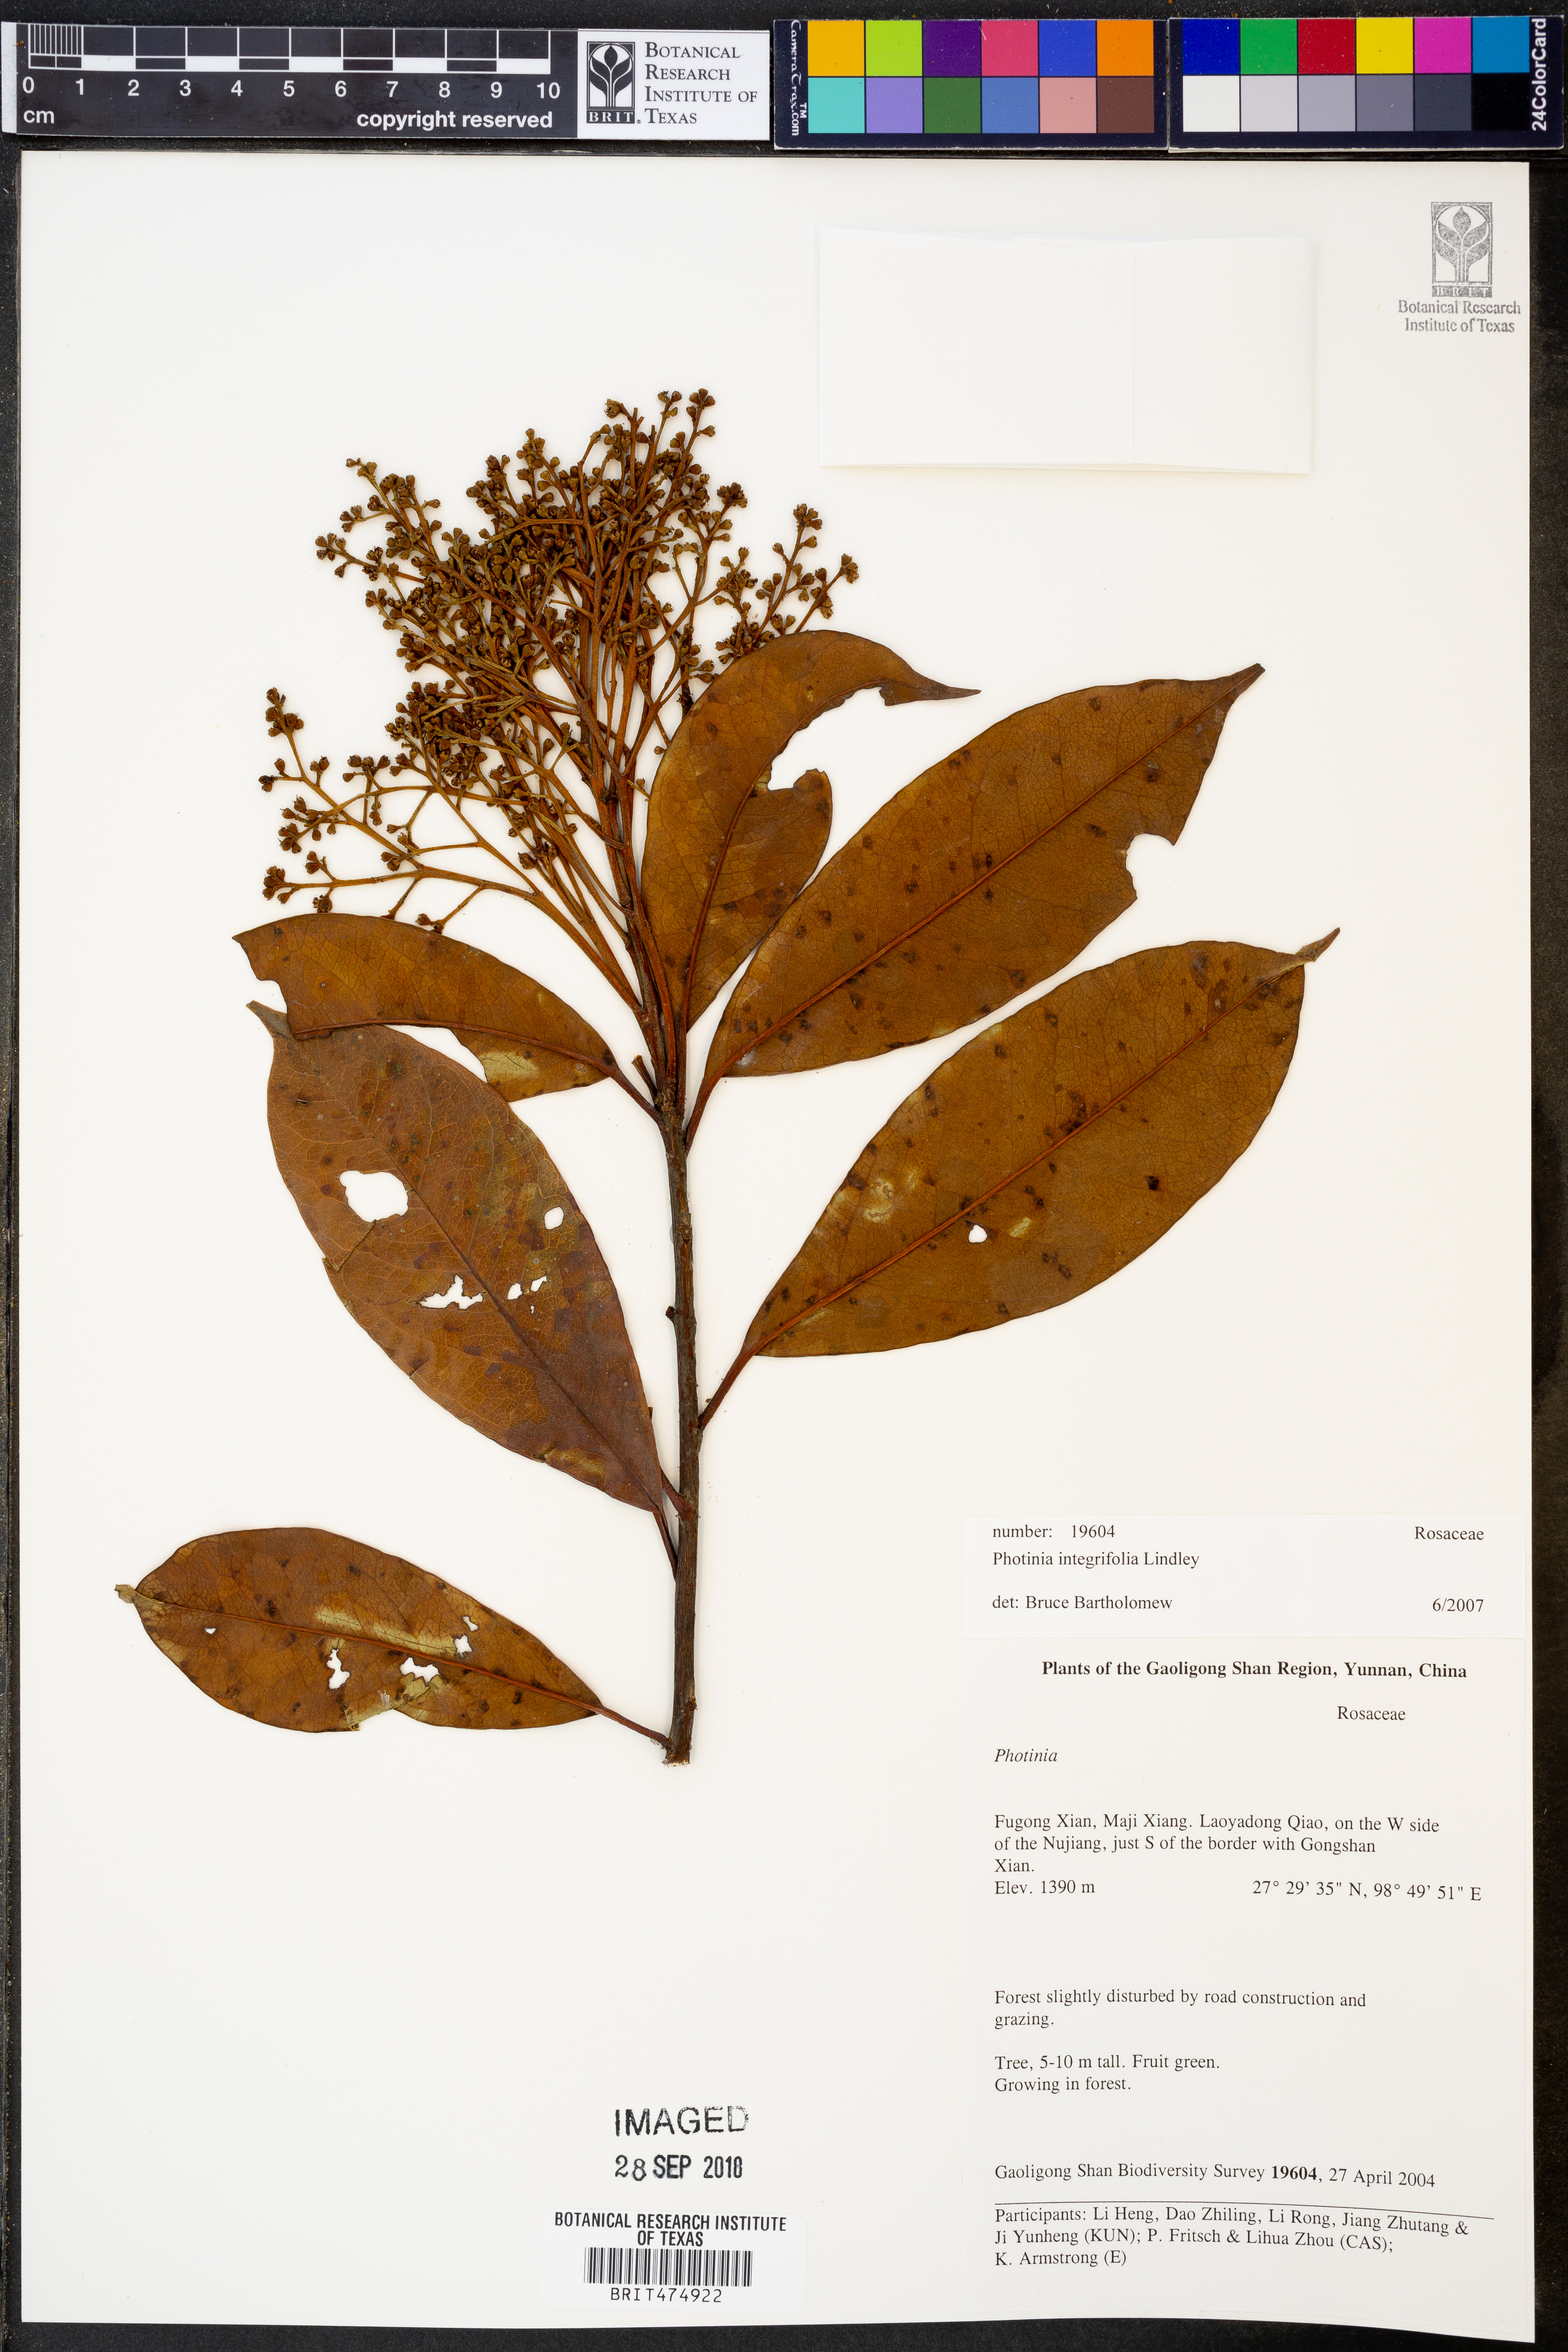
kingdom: Plantae
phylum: Tracheophyta
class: Magnoliopsida
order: Rosales
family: Rosaceae
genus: Photinia
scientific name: Photinia integrifolia
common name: Himalayan chokeberry
